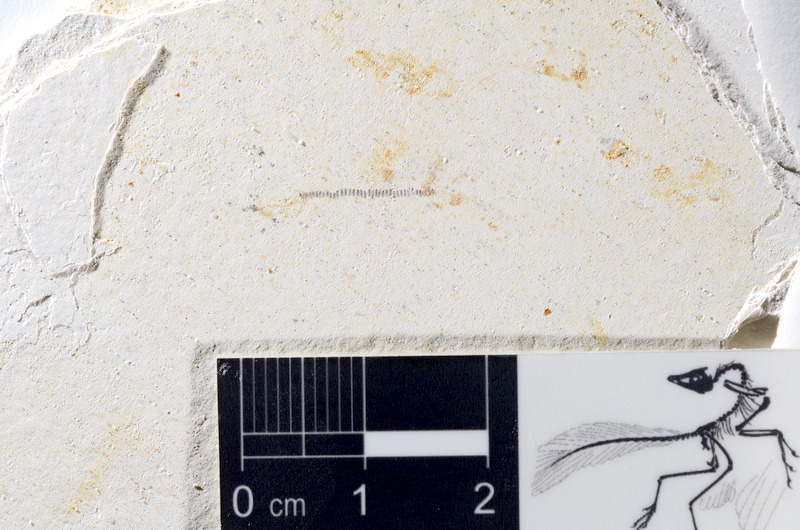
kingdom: Animalia
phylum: Chordata
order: Salmoniformes
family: Orthogonikleithridae
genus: Orthogonikleithrus
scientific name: Orthogonikleithrus hoelli
